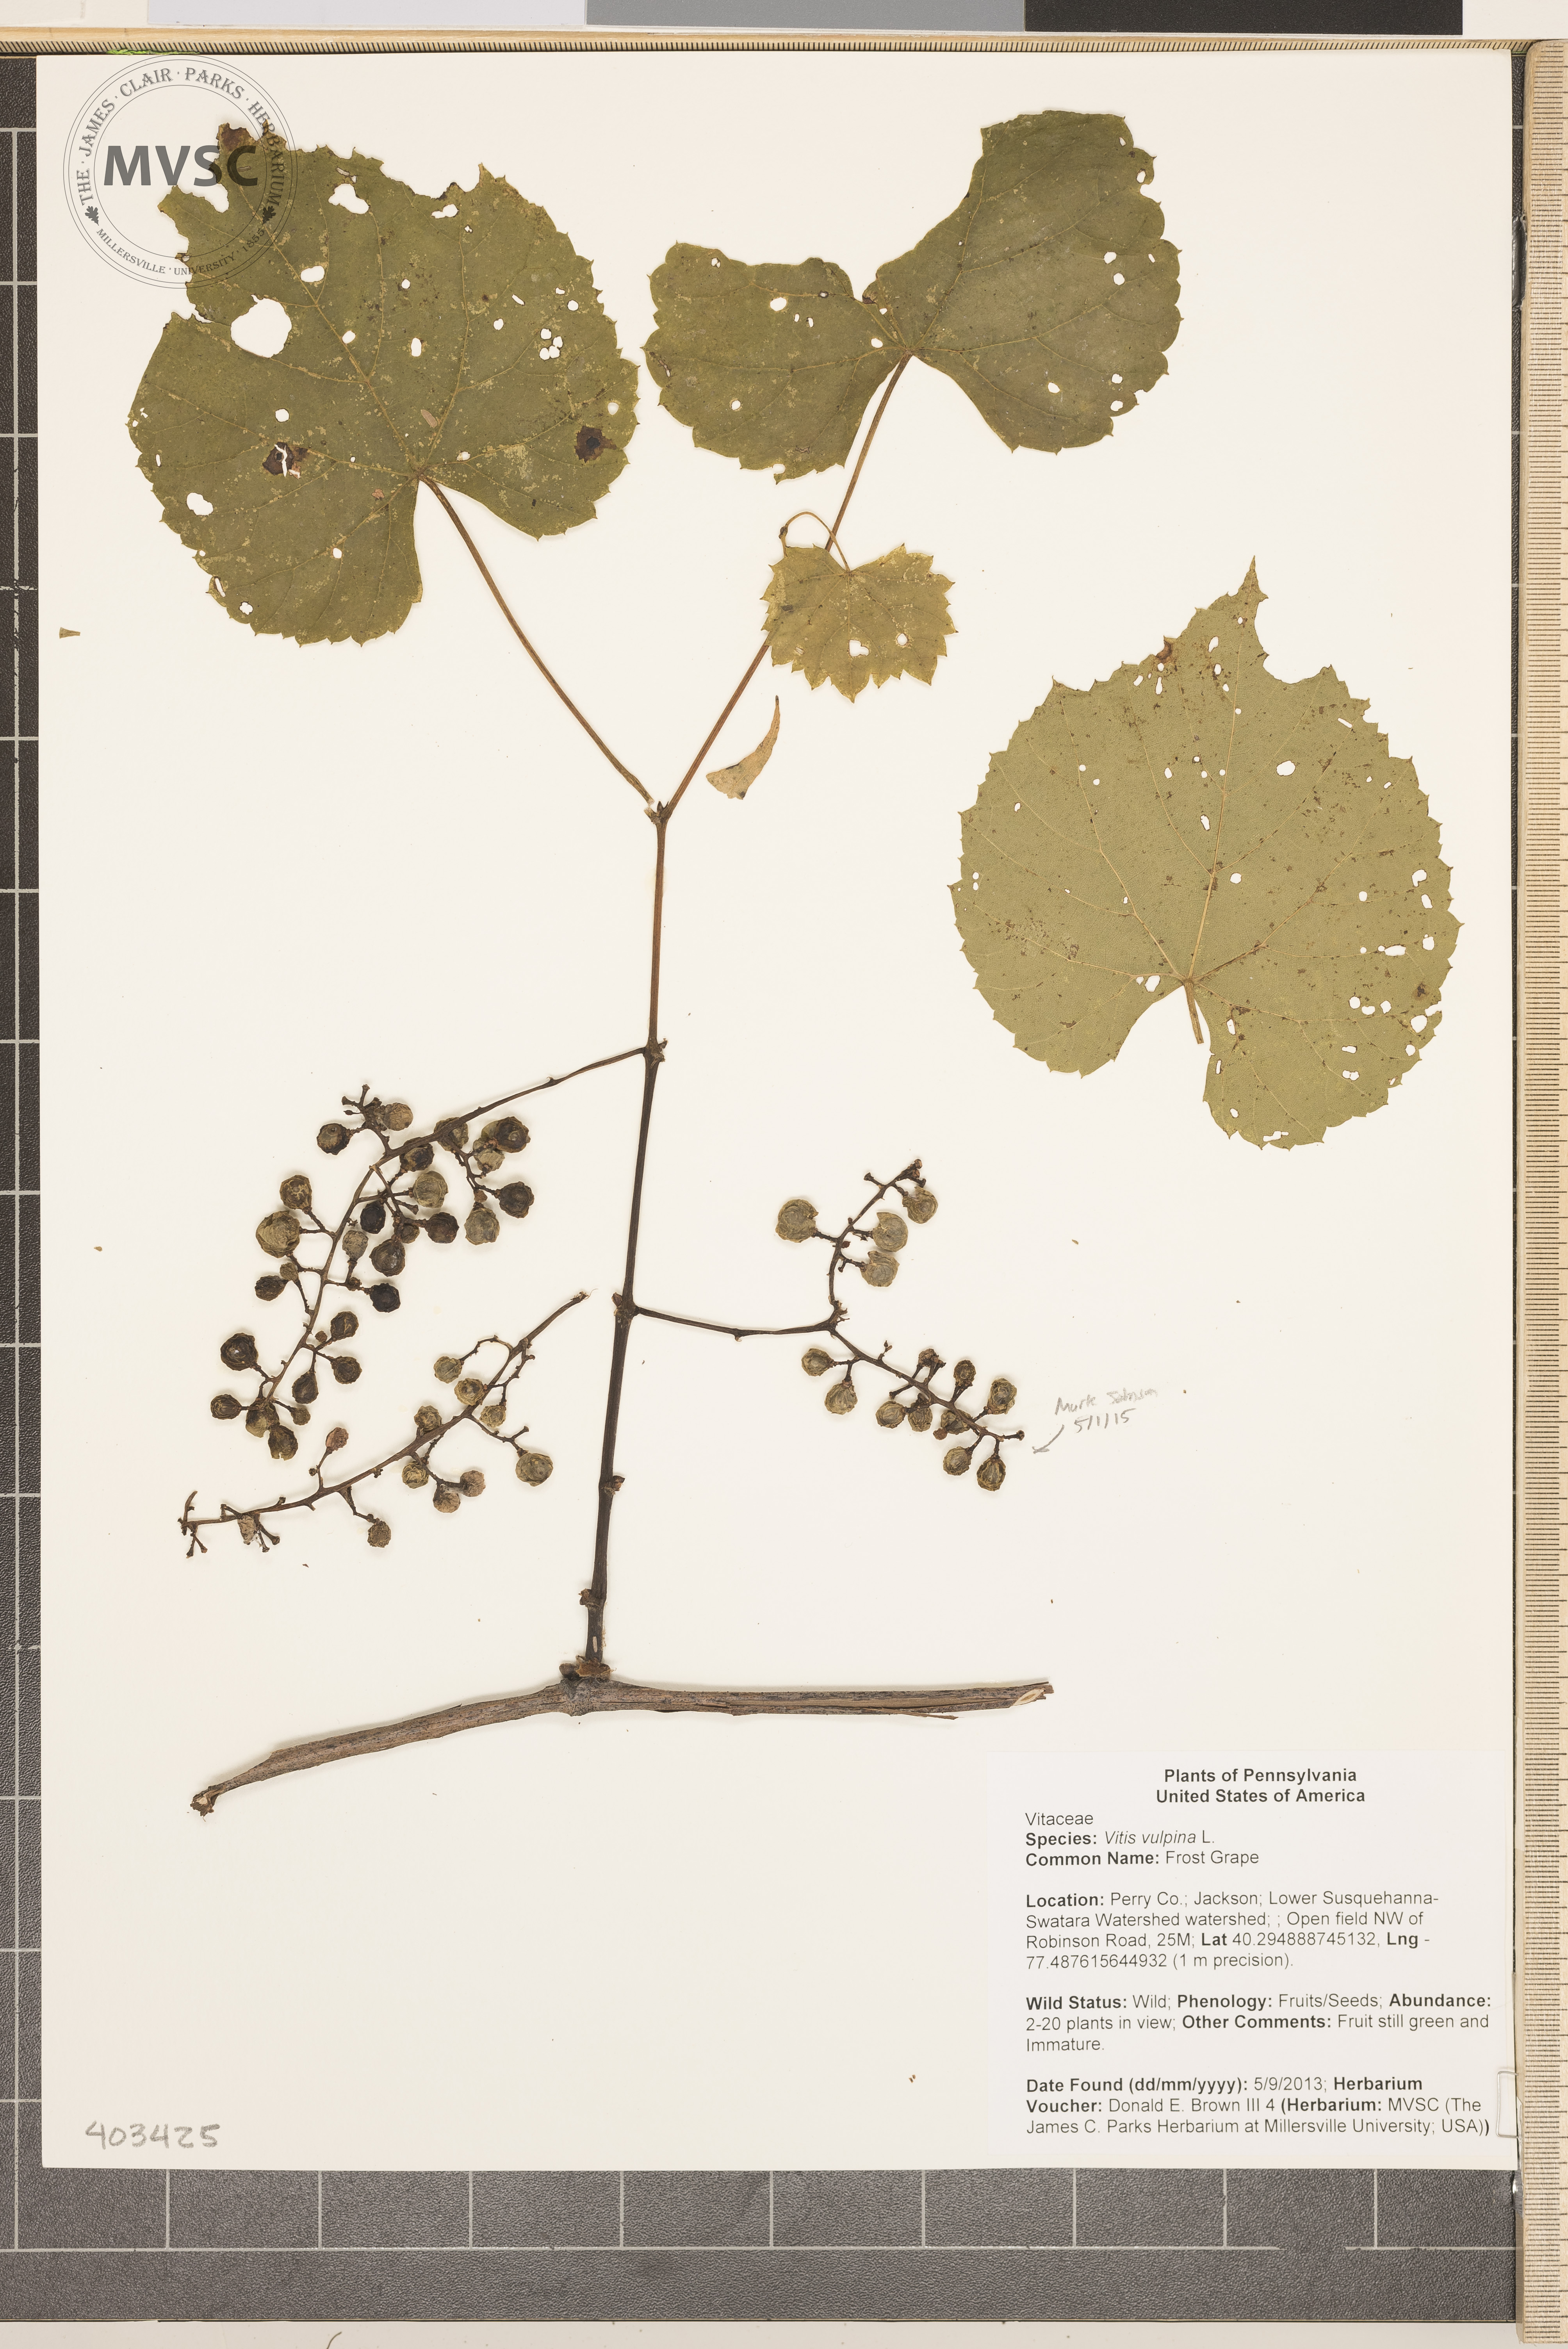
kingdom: Plantae
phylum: Tracheophyta
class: Magnoliopsida
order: Vitales
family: Vitaceae
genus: Vitis
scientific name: Vitis vulpina
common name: Frost Grape
